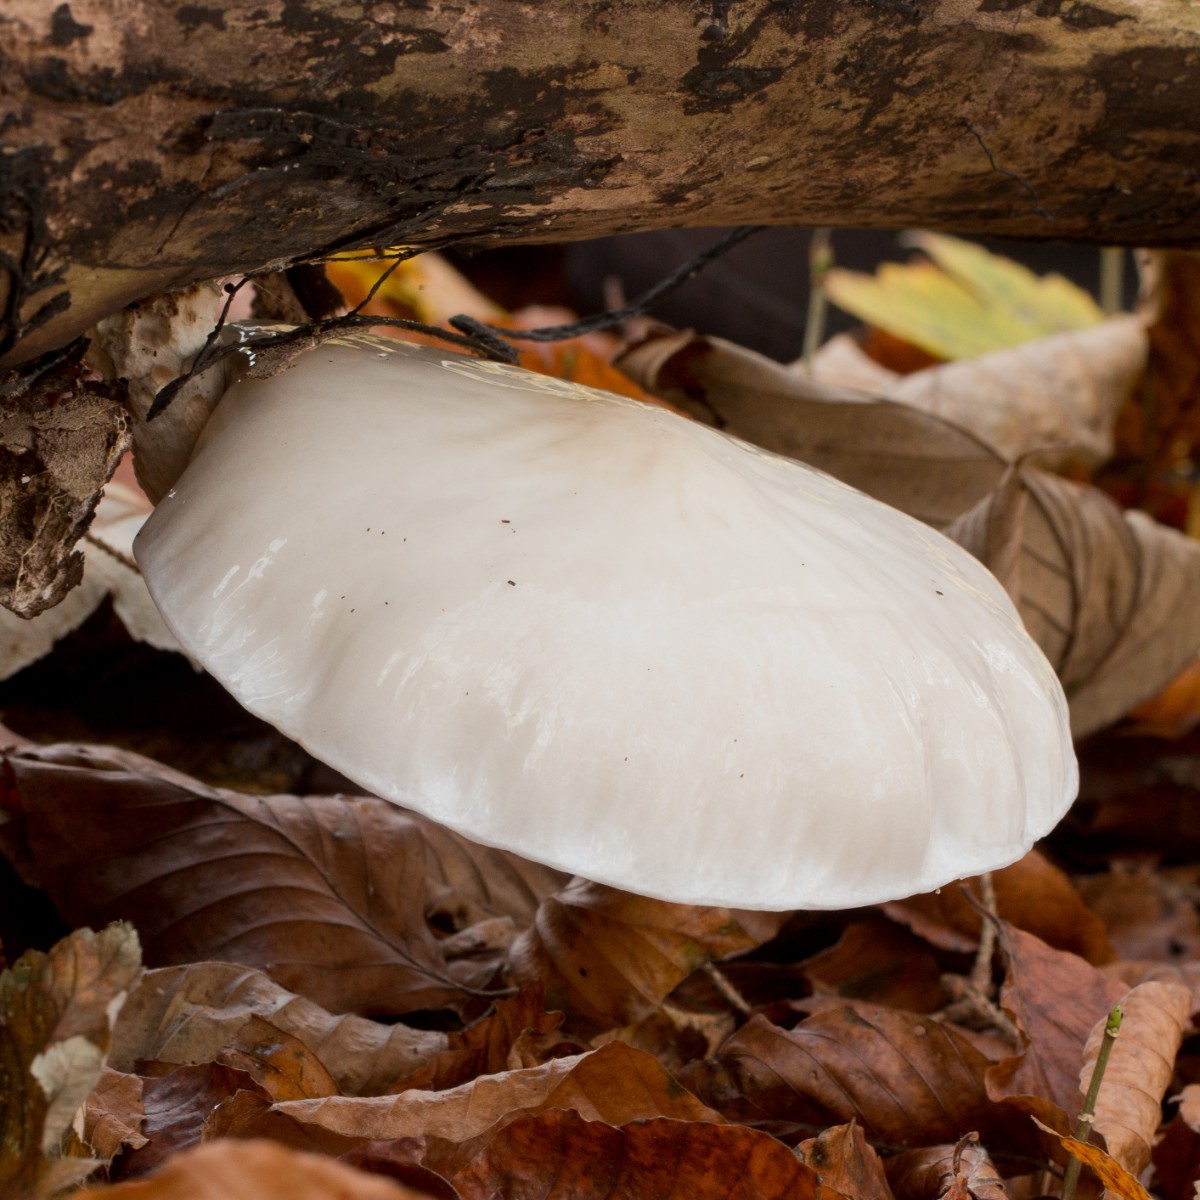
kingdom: Fungi
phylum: Basidiomycota
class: Agaricomycetes
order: Agaricales
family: Physalacriaceae
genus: Mucidula
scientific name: Mucidula mucida
